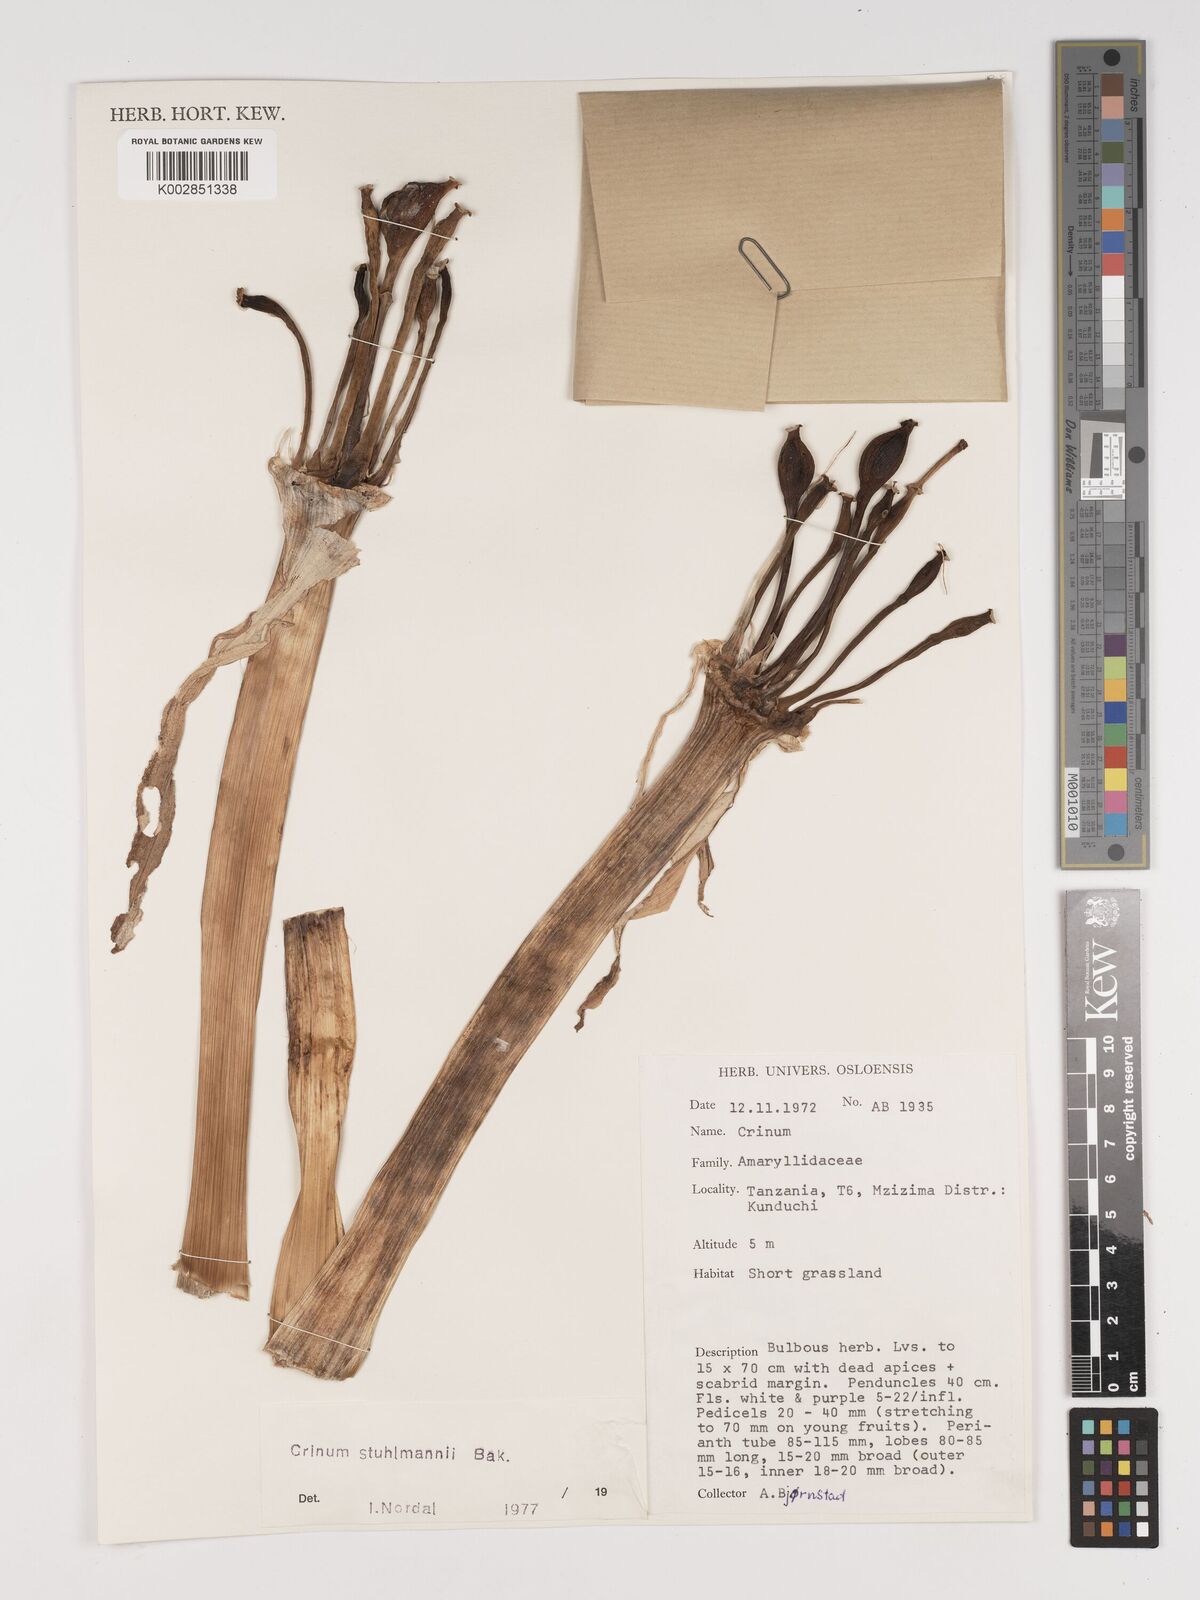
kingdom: Plantae
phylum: Tracheophyta
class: Liliopsida
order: Asparagales
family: Amaryllidaceae
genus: Crinum
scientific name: Crinum stuhlmannii
